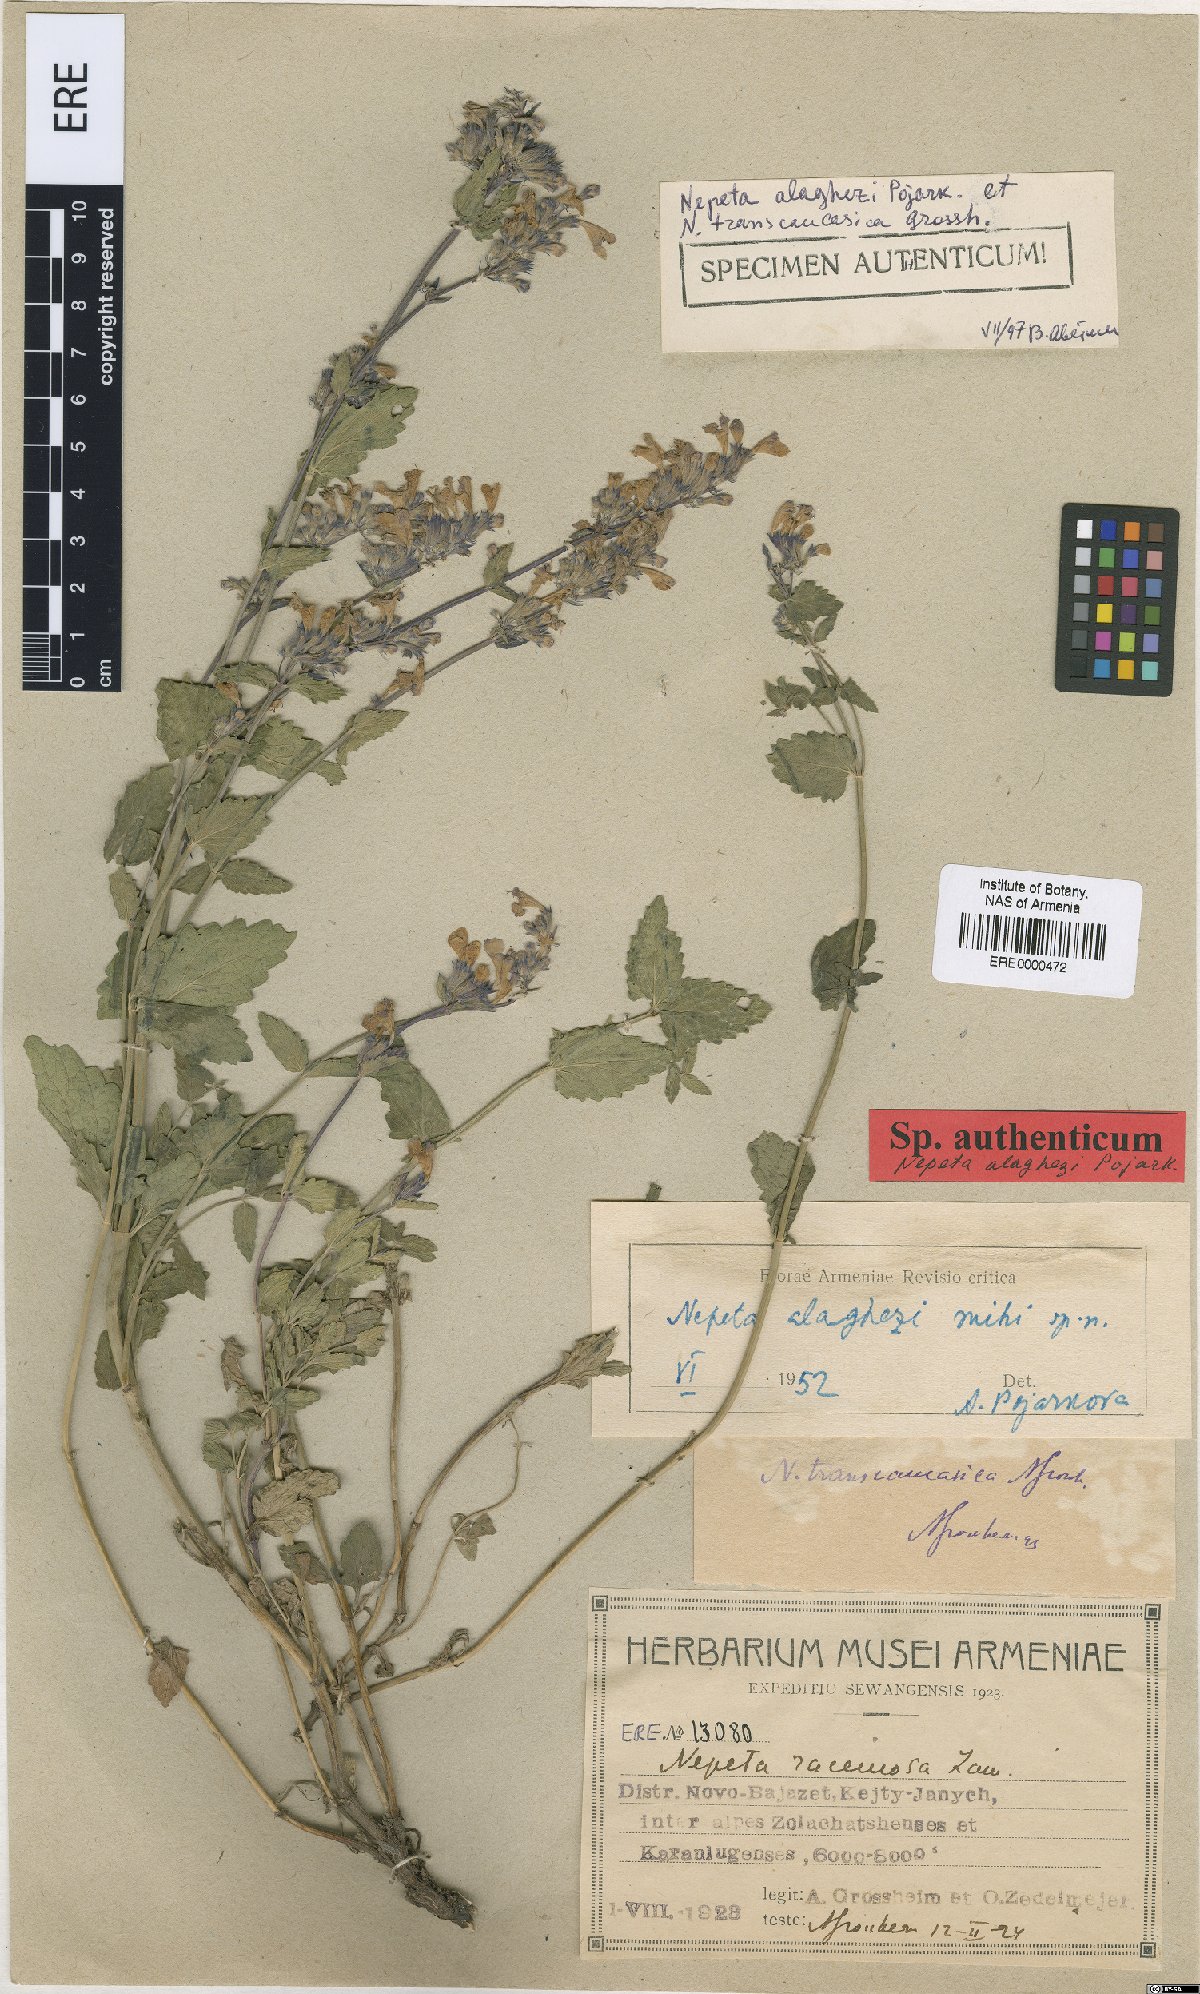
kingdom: Plantae
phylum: Tracheophyta
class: Magnoliopsida
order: Lamiales
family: Lamiaceae
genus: Nepeta
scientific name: Nepeta alaghezi
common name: Alaghezian catmint
